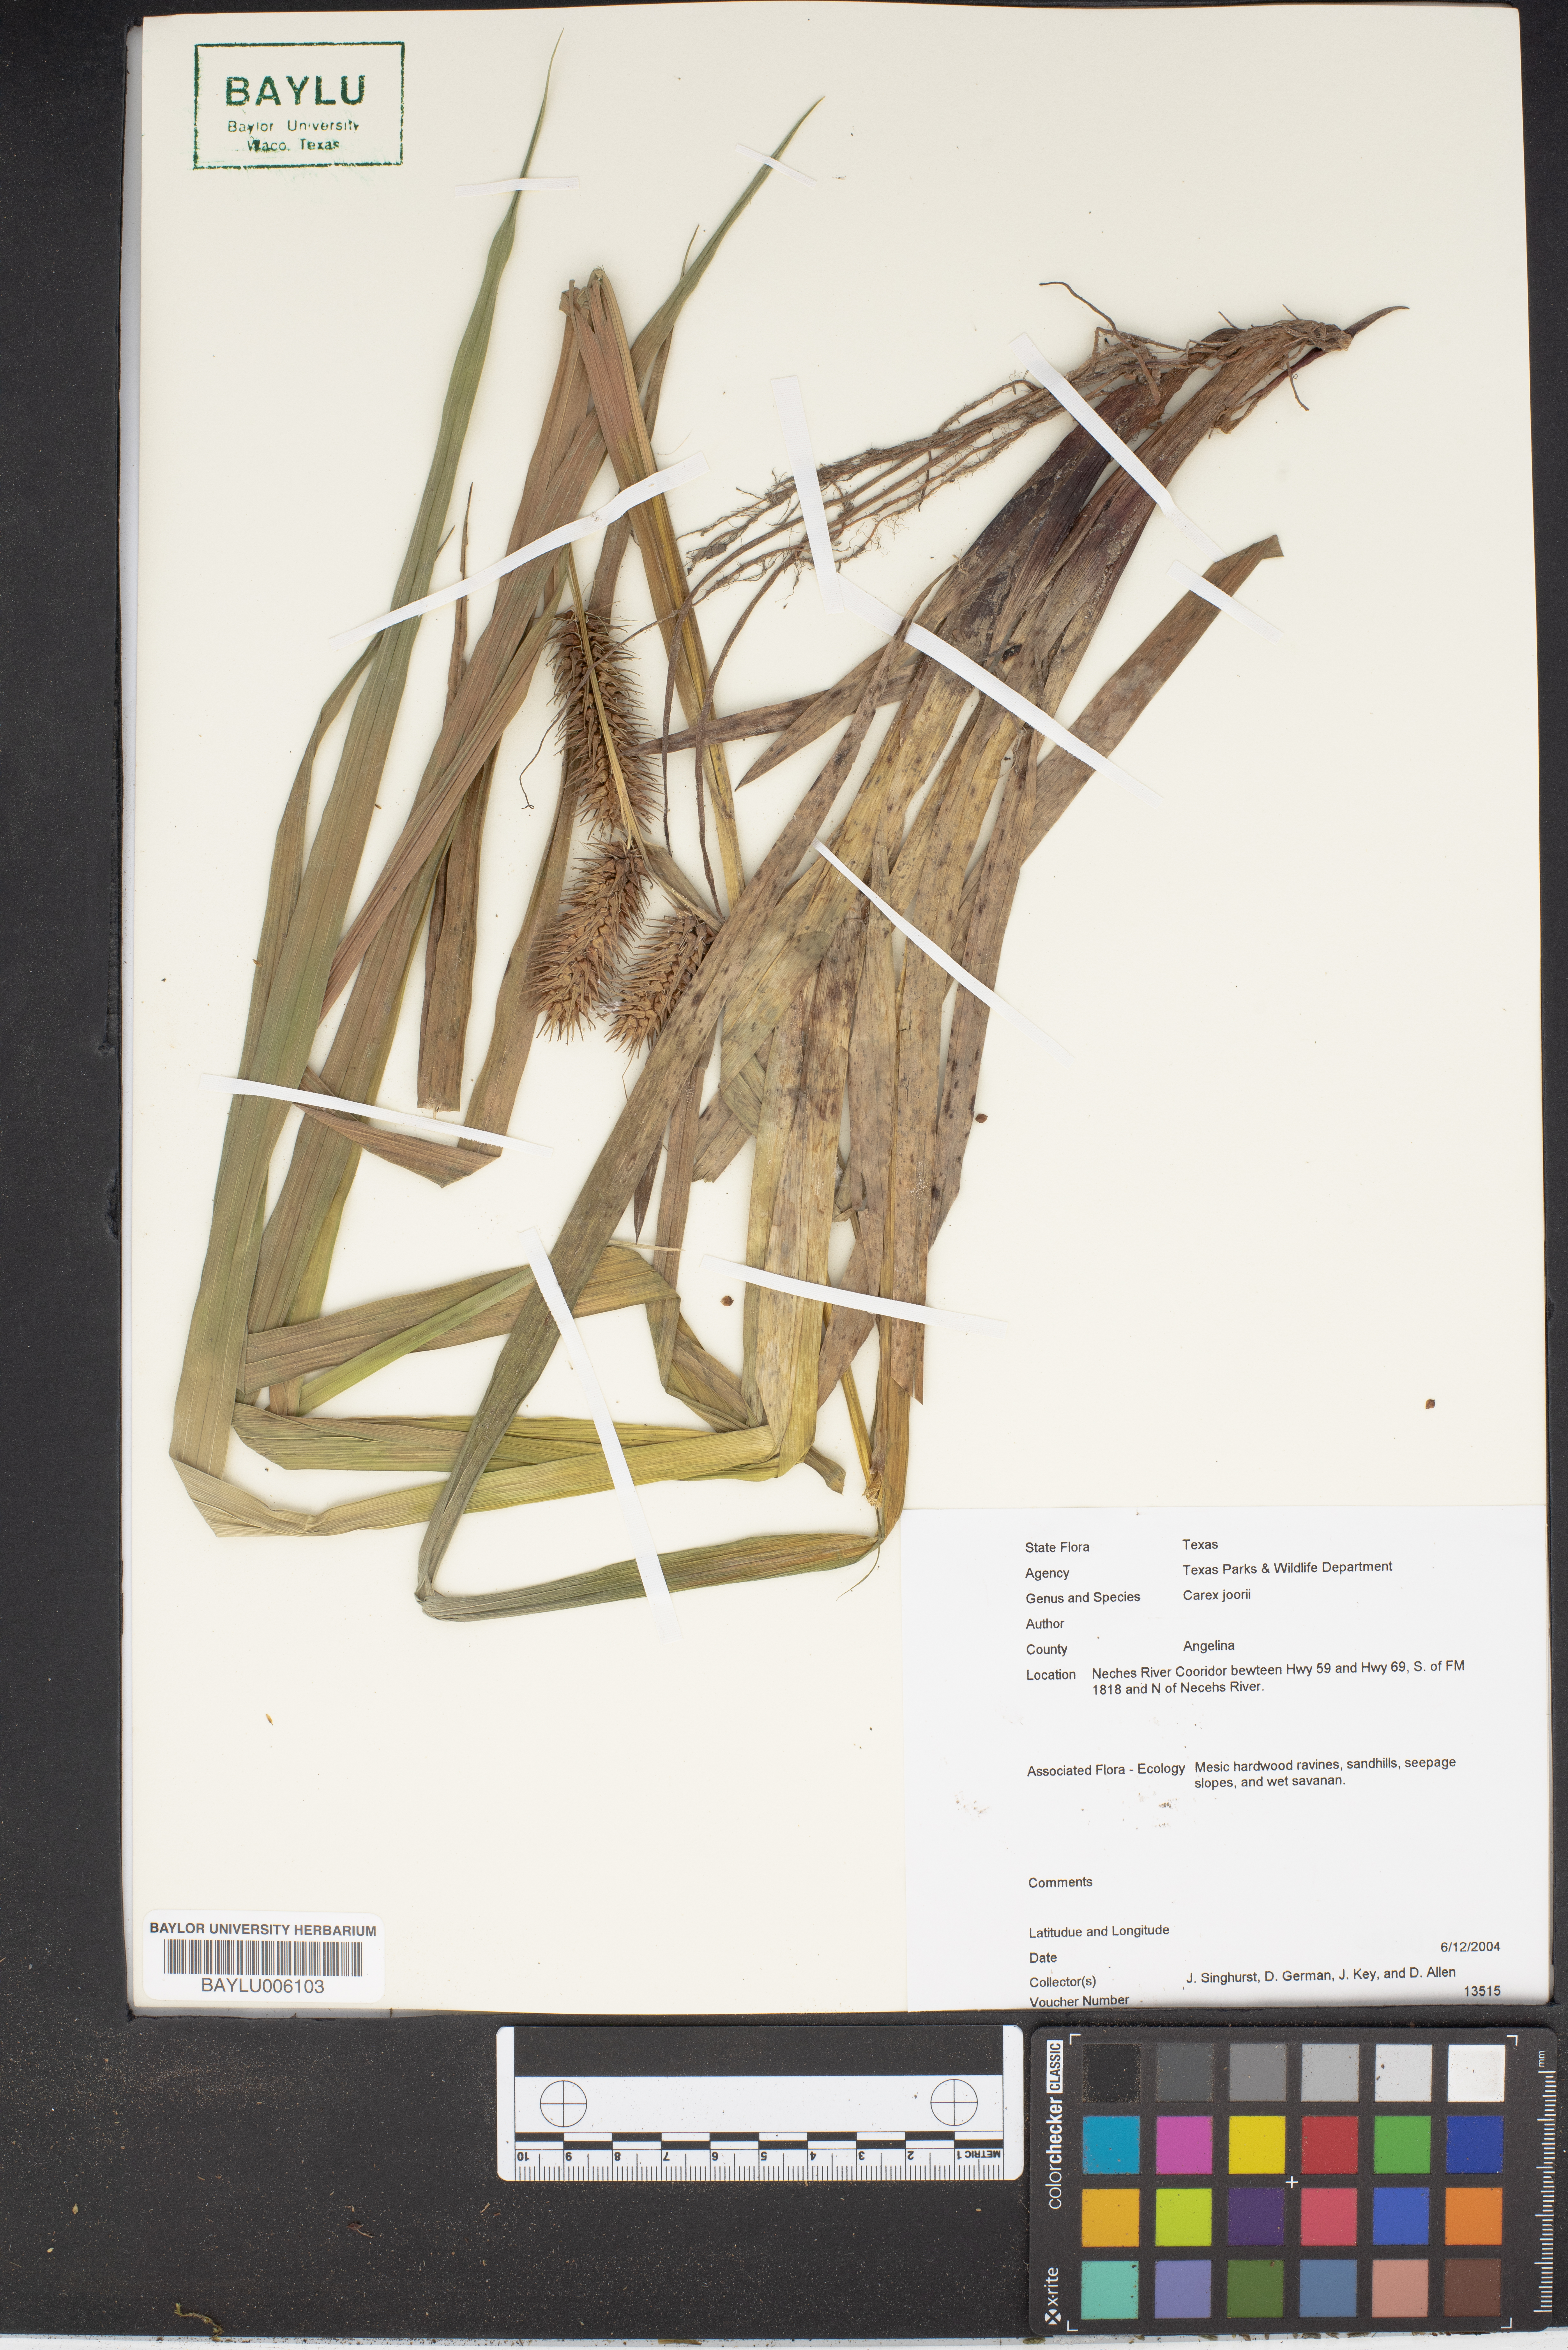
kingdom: Plantae
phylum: Tracheophyta
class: Liliopsida
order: Poales
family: Cyperaceae
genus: Carex
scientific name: Carex joorii
